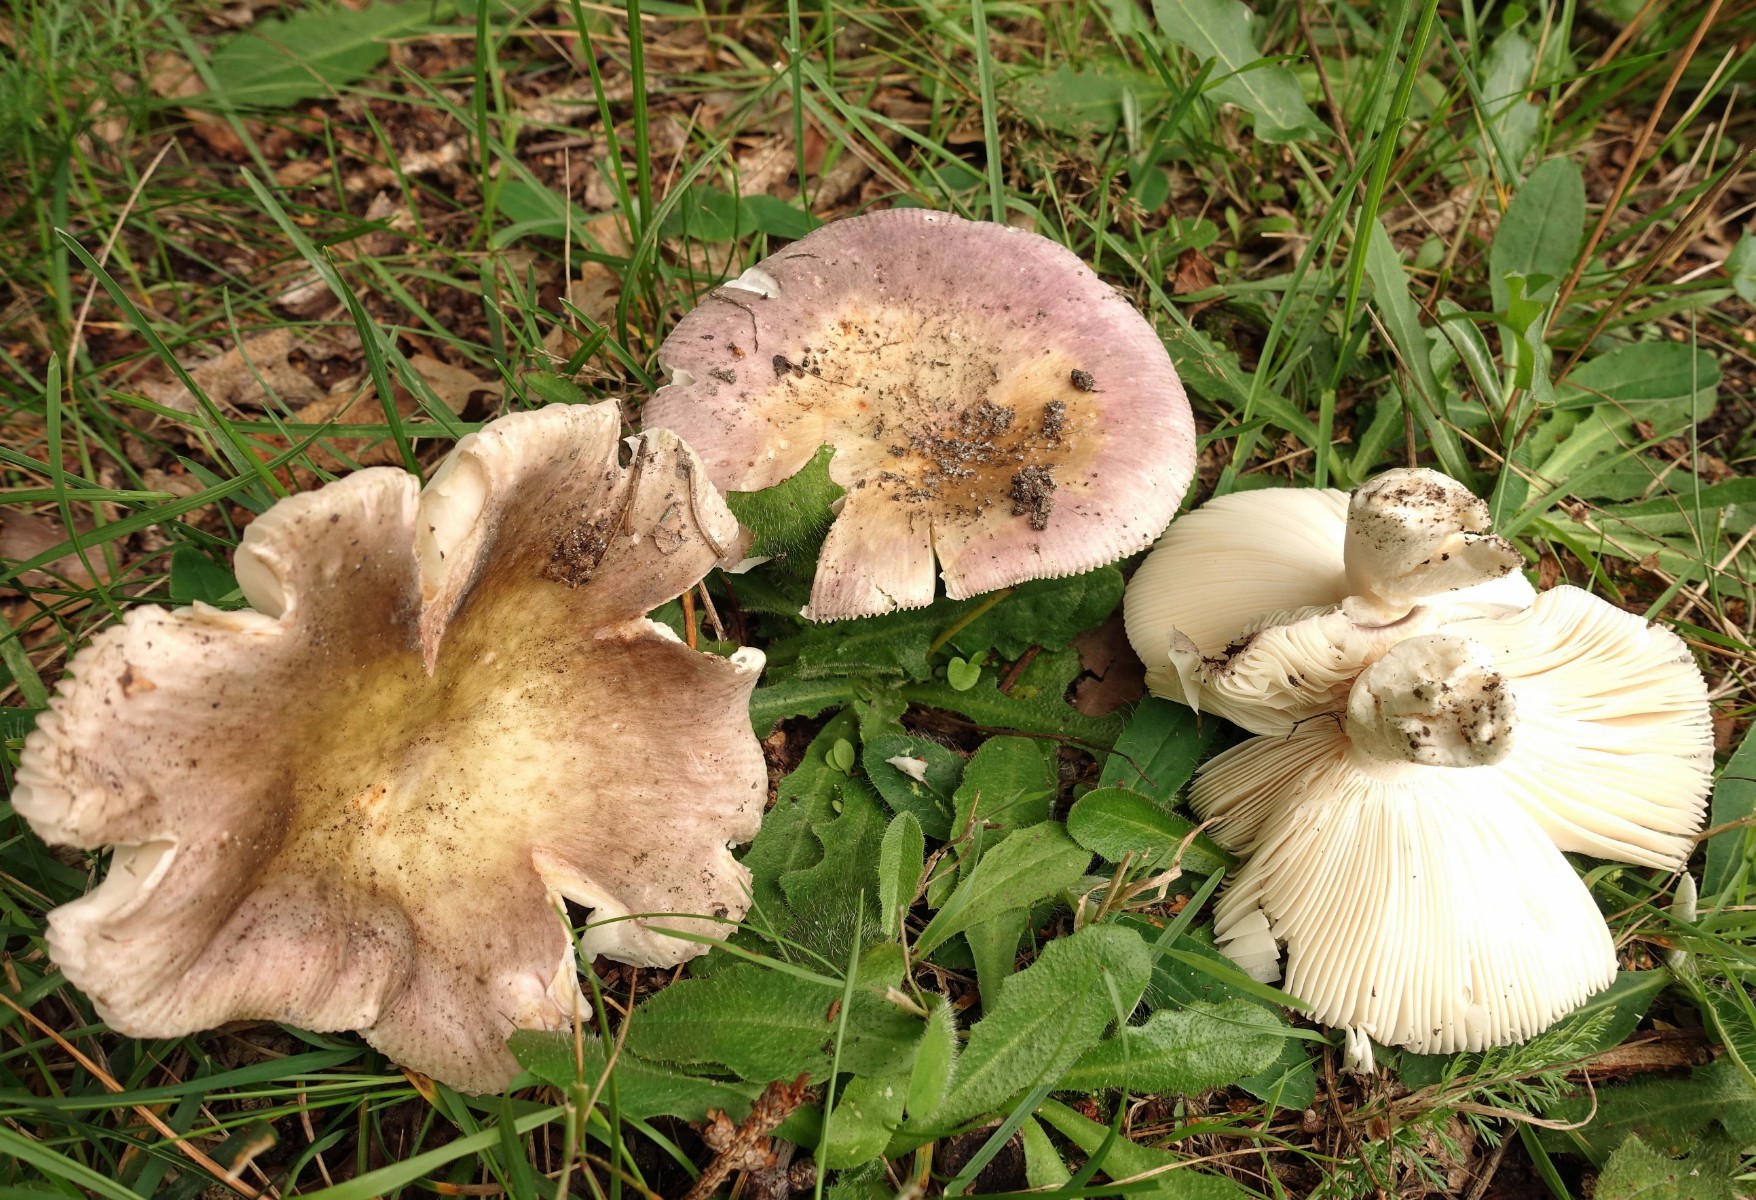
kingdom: Fungi
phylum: Basidiomycota
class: Agaricomycetes
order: Russulales
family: Russulaceae
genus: Russula
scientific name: Russula
